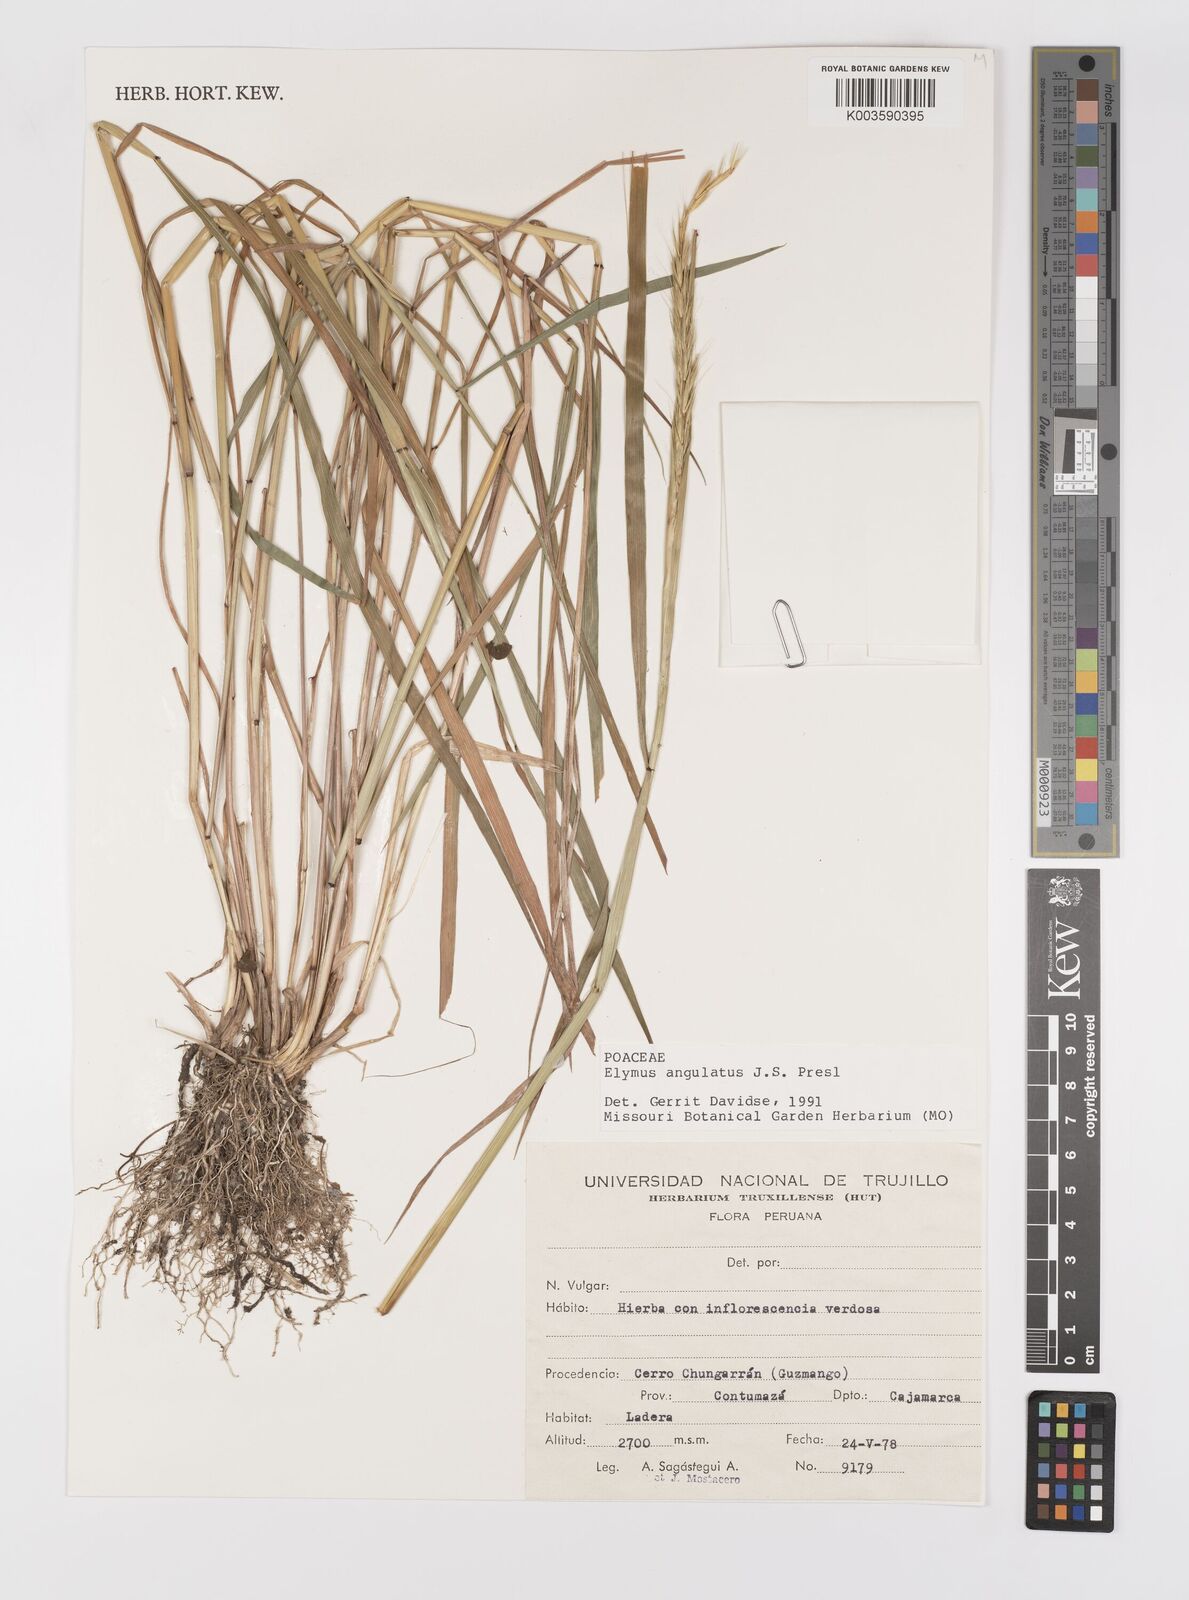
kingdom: Plantae
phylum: Tracheophyta
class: Liliopsida
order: Poales
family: Poaceae
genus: Elymus
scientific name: Elymus angulatus
